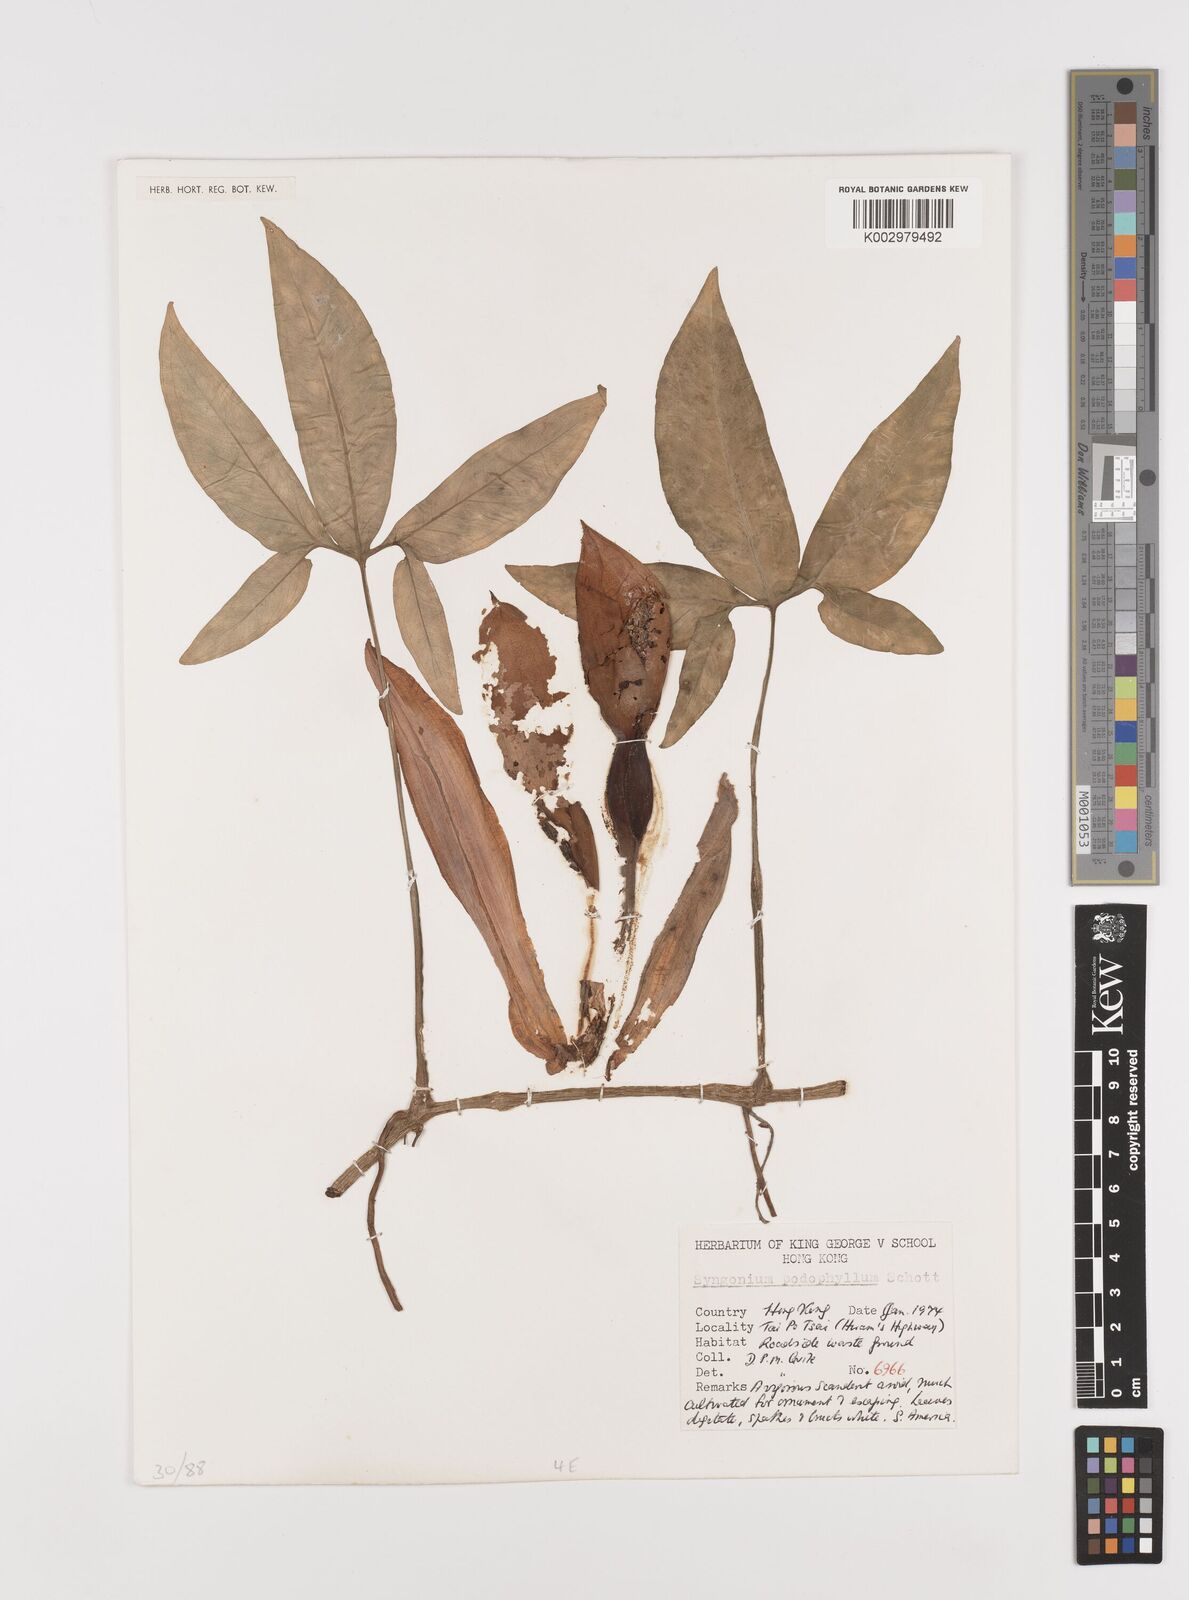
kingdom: Plantae
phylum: Tracheophyta
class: Liliopsida
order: Alismatales
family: Araceae
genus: Syngonium
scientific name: Syngonium podophyllum
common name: American evergreen
